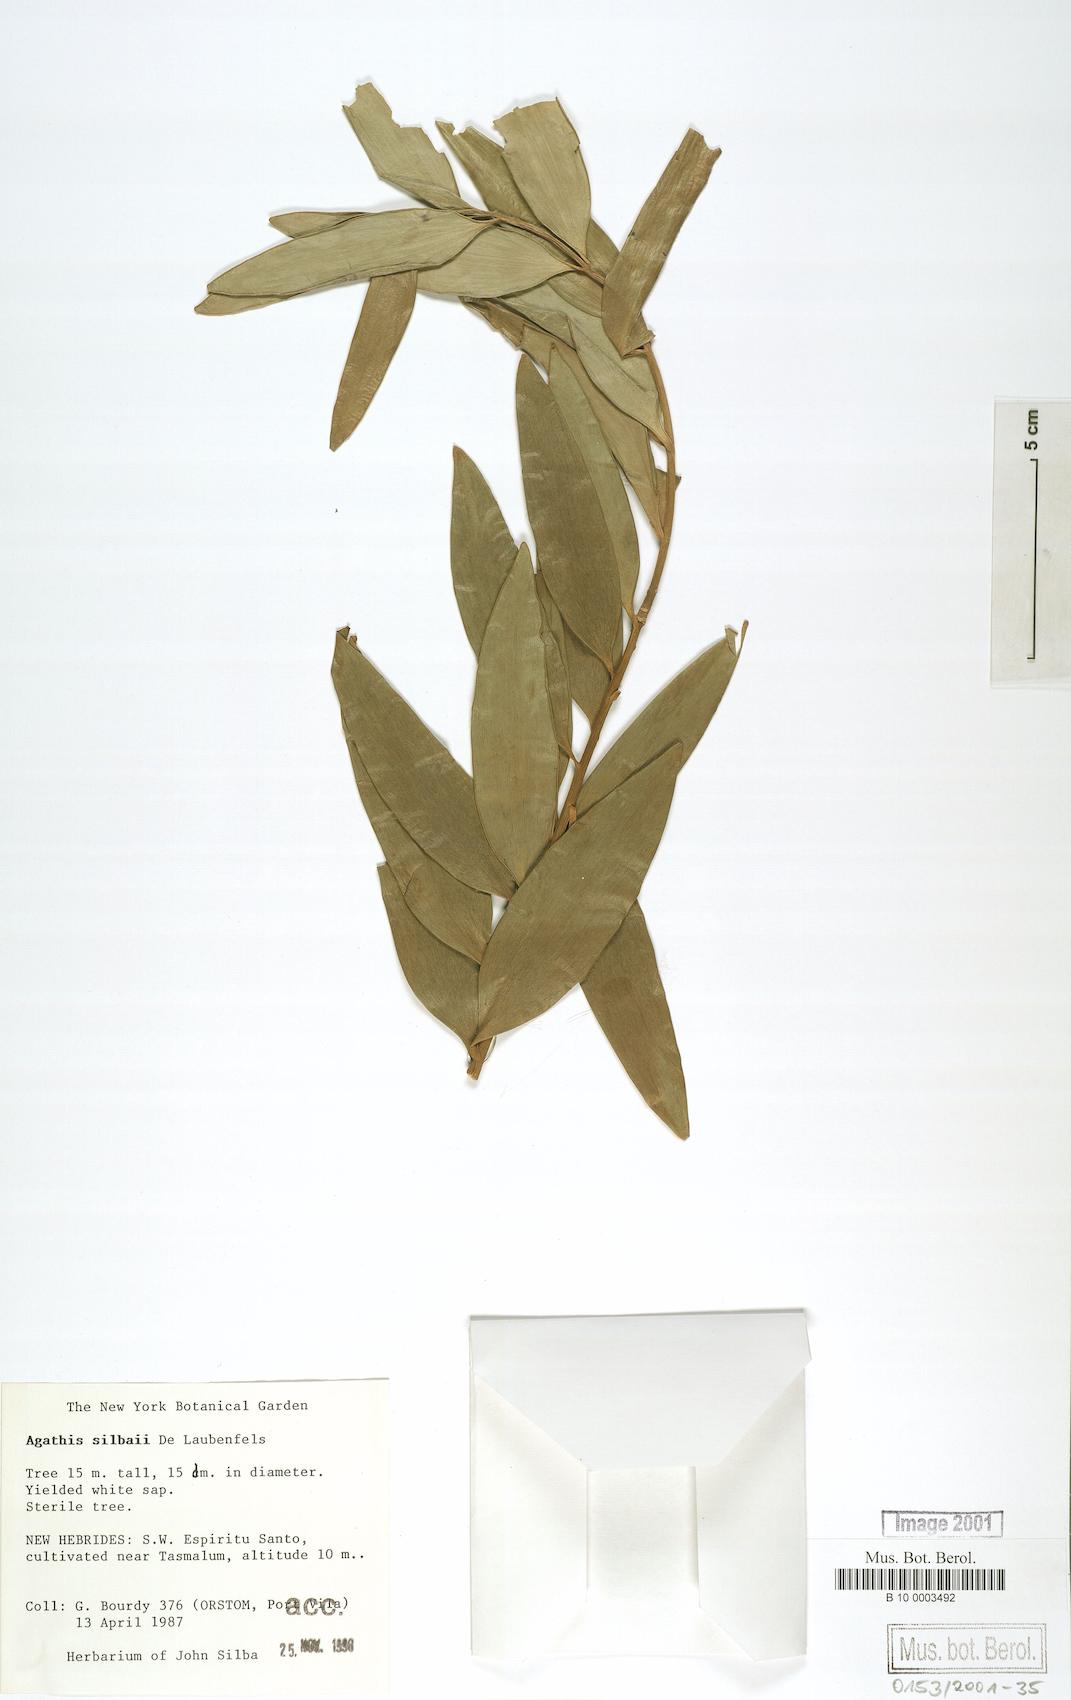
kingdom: Plantae
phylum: Tracheophyta
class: Pinopsida
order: Pinales
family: Araucariaceae
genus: Agathis
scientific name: Agathis silbae
